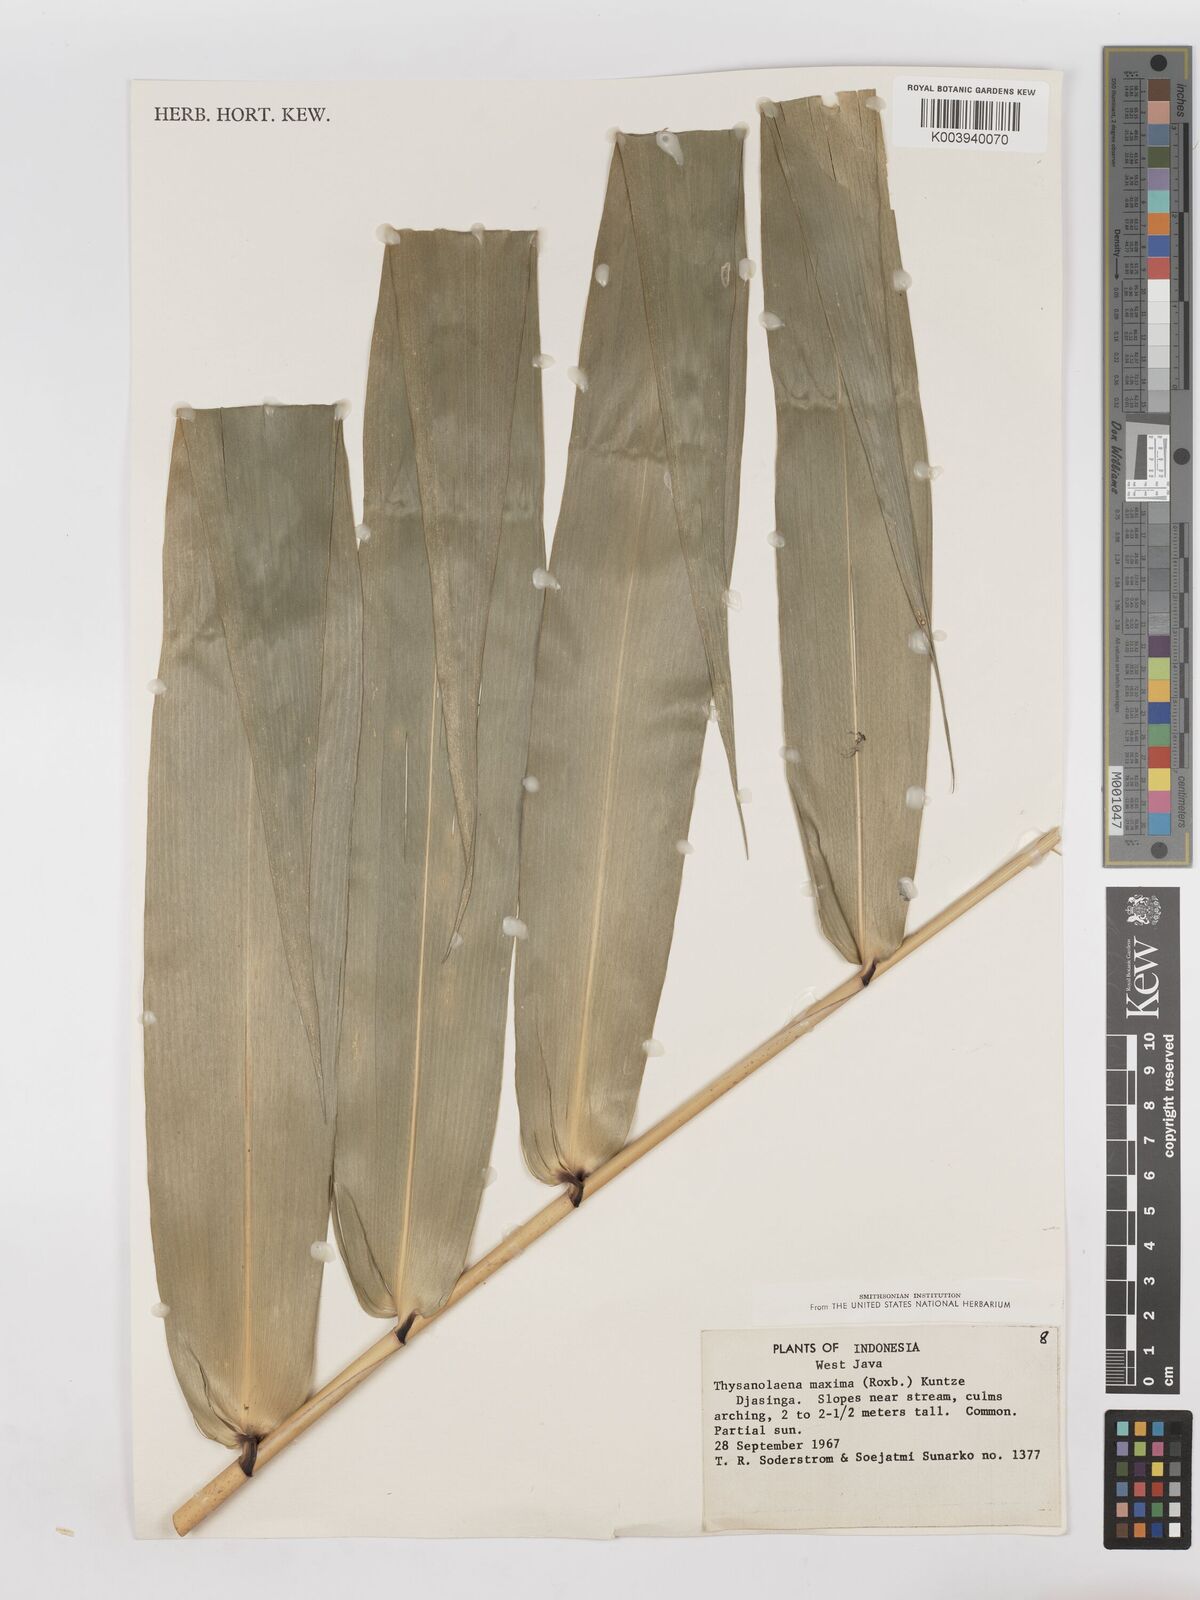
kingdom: Plantae
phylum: Tracheophyta
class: Liliopsida
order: Poales
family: Poaceae
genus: Thysanolaena
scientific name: Thysanolaena latifolia
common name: Tiger grass
